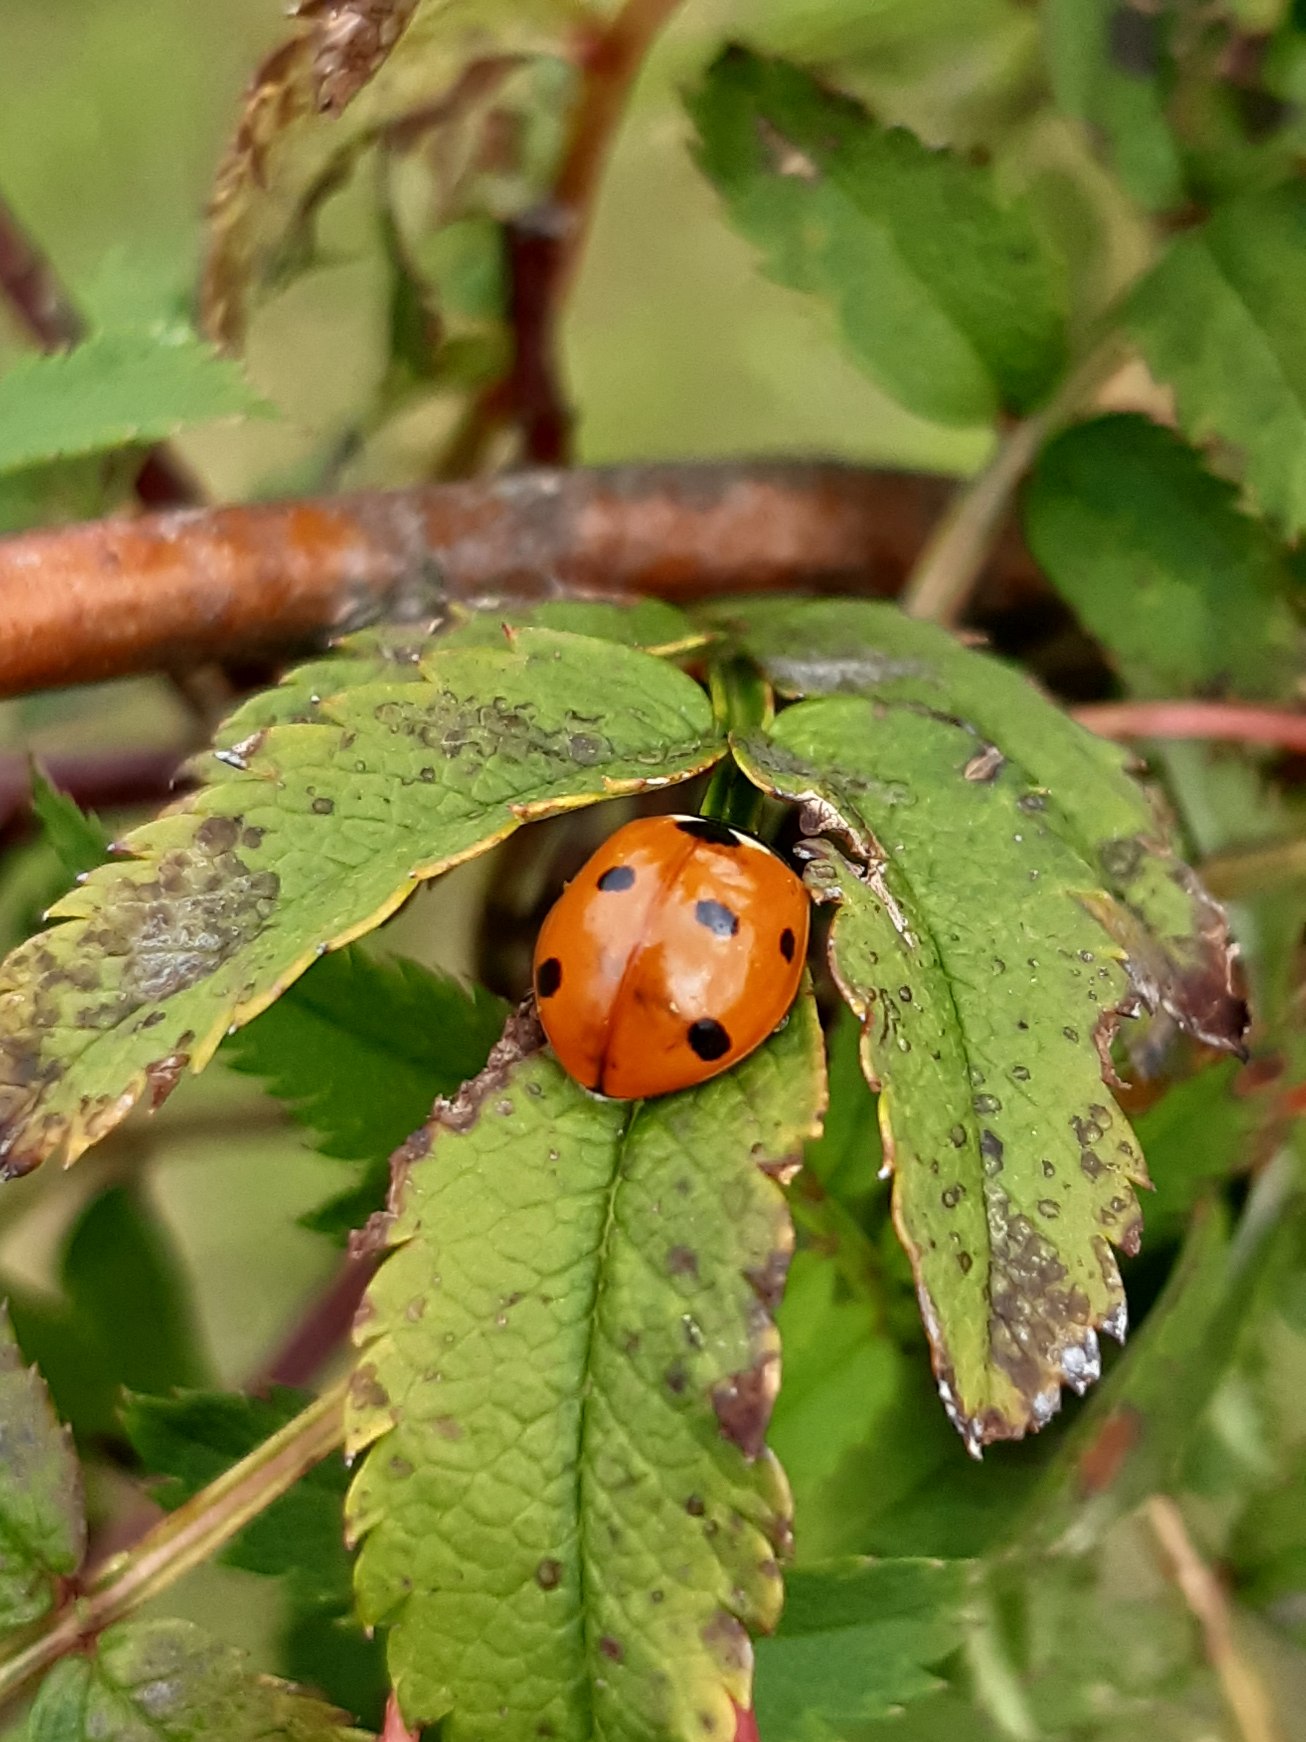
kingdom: Animalia
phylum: Arthropoda
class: Insecta
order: Coleoptera
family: Coccinellidae
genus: Coccinella
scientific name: Coccinella septempunctata
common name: Syvplettet mariehøne
